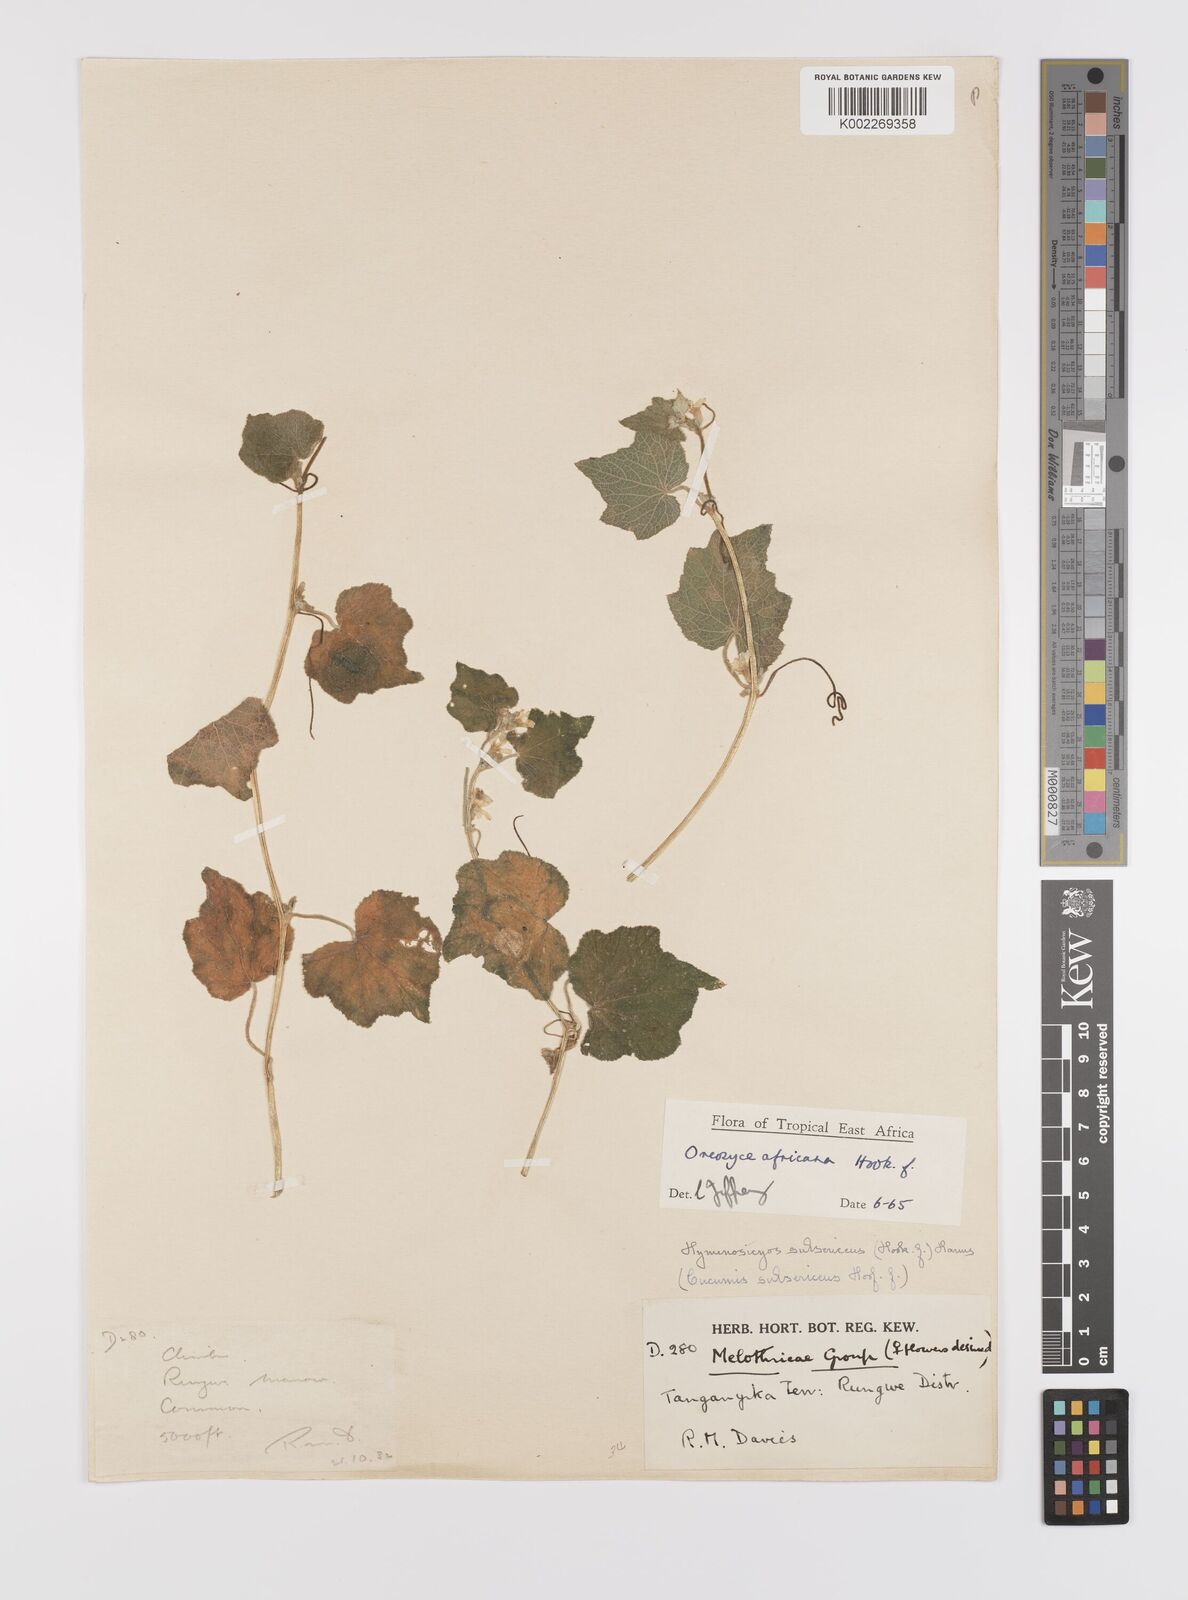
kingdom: Plantae
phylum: Tracheophyta
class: Magnoliopsida
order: Cucurbitales
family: Cucurbitaceae
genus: Cucumis
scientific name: Cucumis oreosyce
